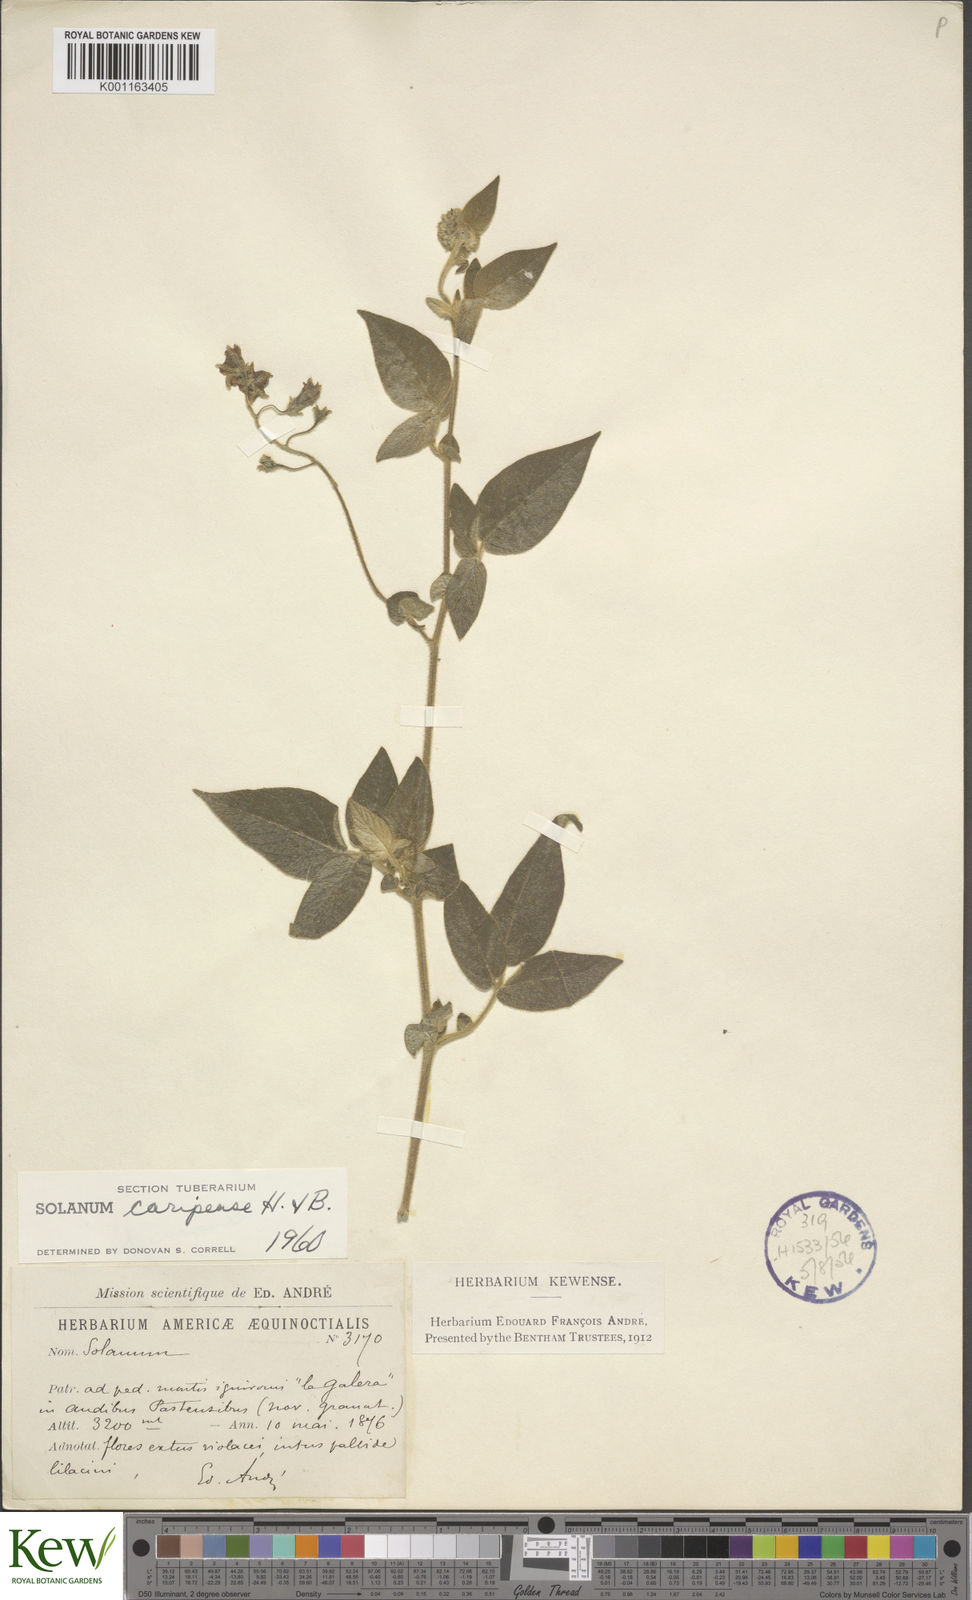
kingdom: Plantae
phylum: Tracheophyta
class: Magnoliopsida
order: Solanales
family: Solanaceae
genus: Solanum
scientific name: Solanum caripense
